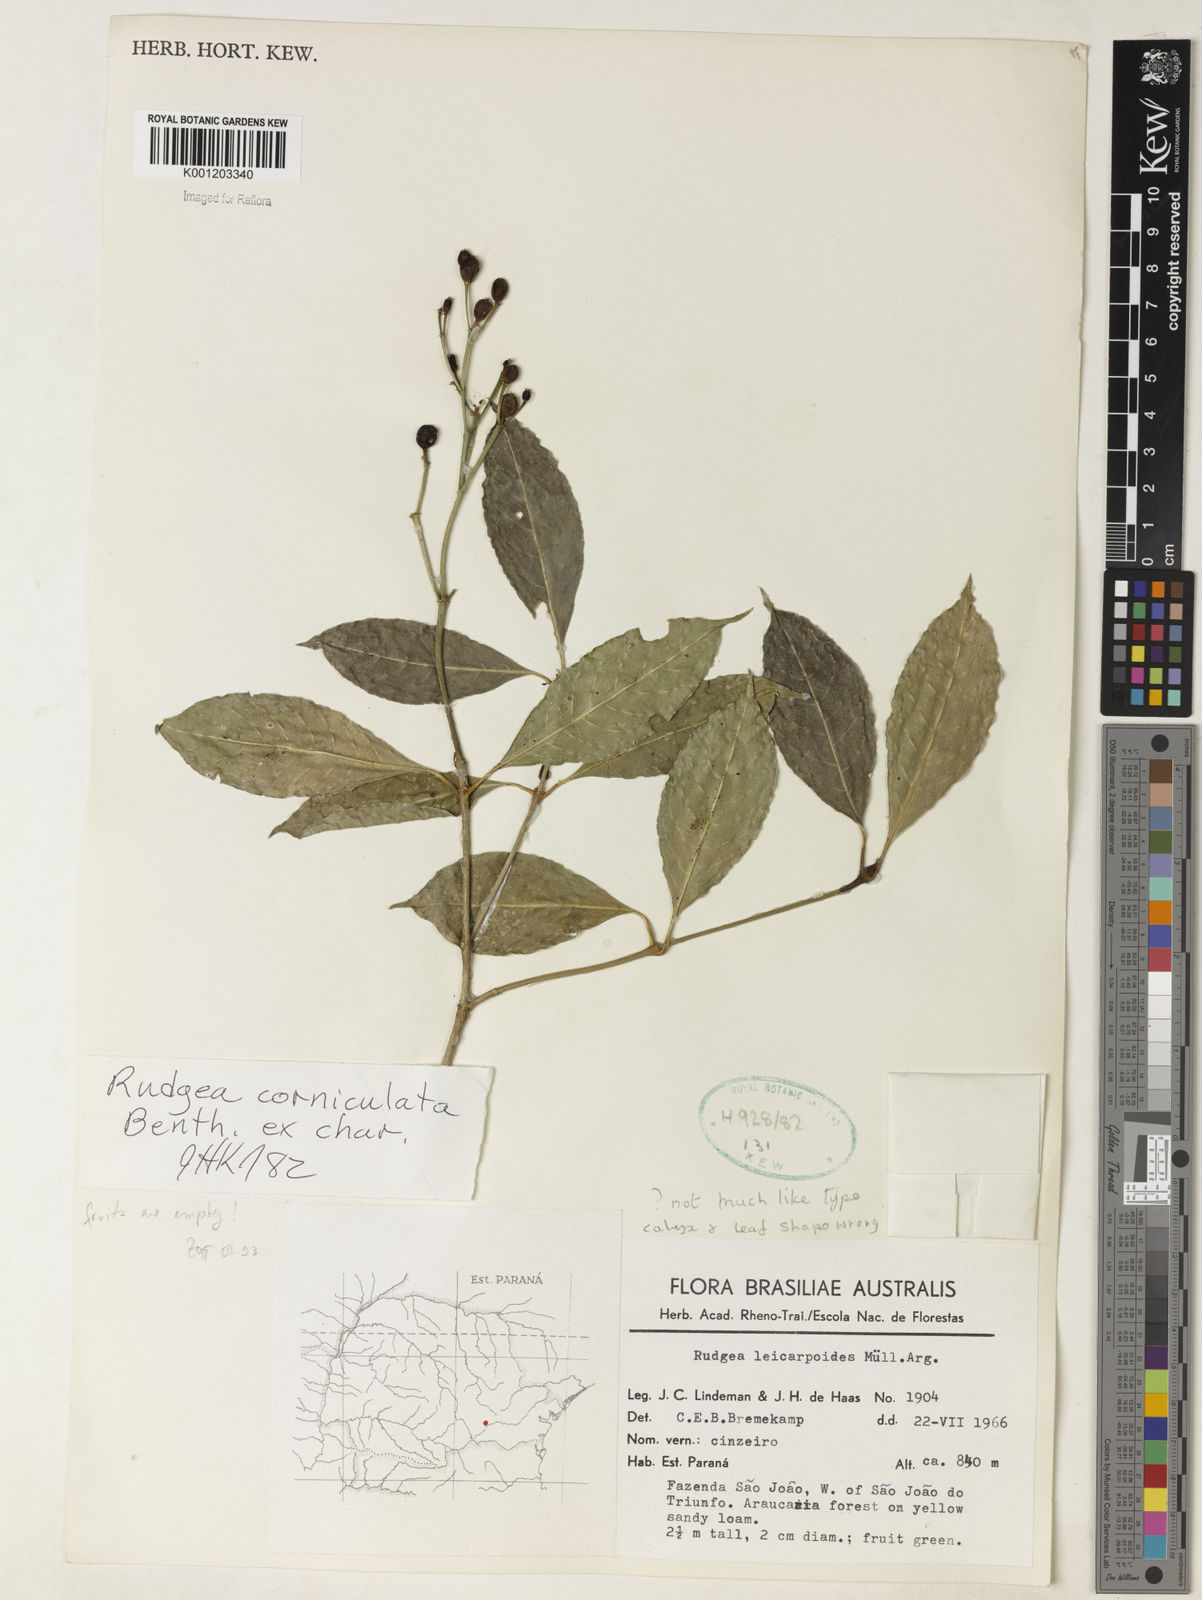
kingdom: Plantae
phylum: Tracheophyta
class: Magnoliopsida
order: Gentianales
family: Rubiaceae
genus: Rudgea
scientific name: Rudgea
